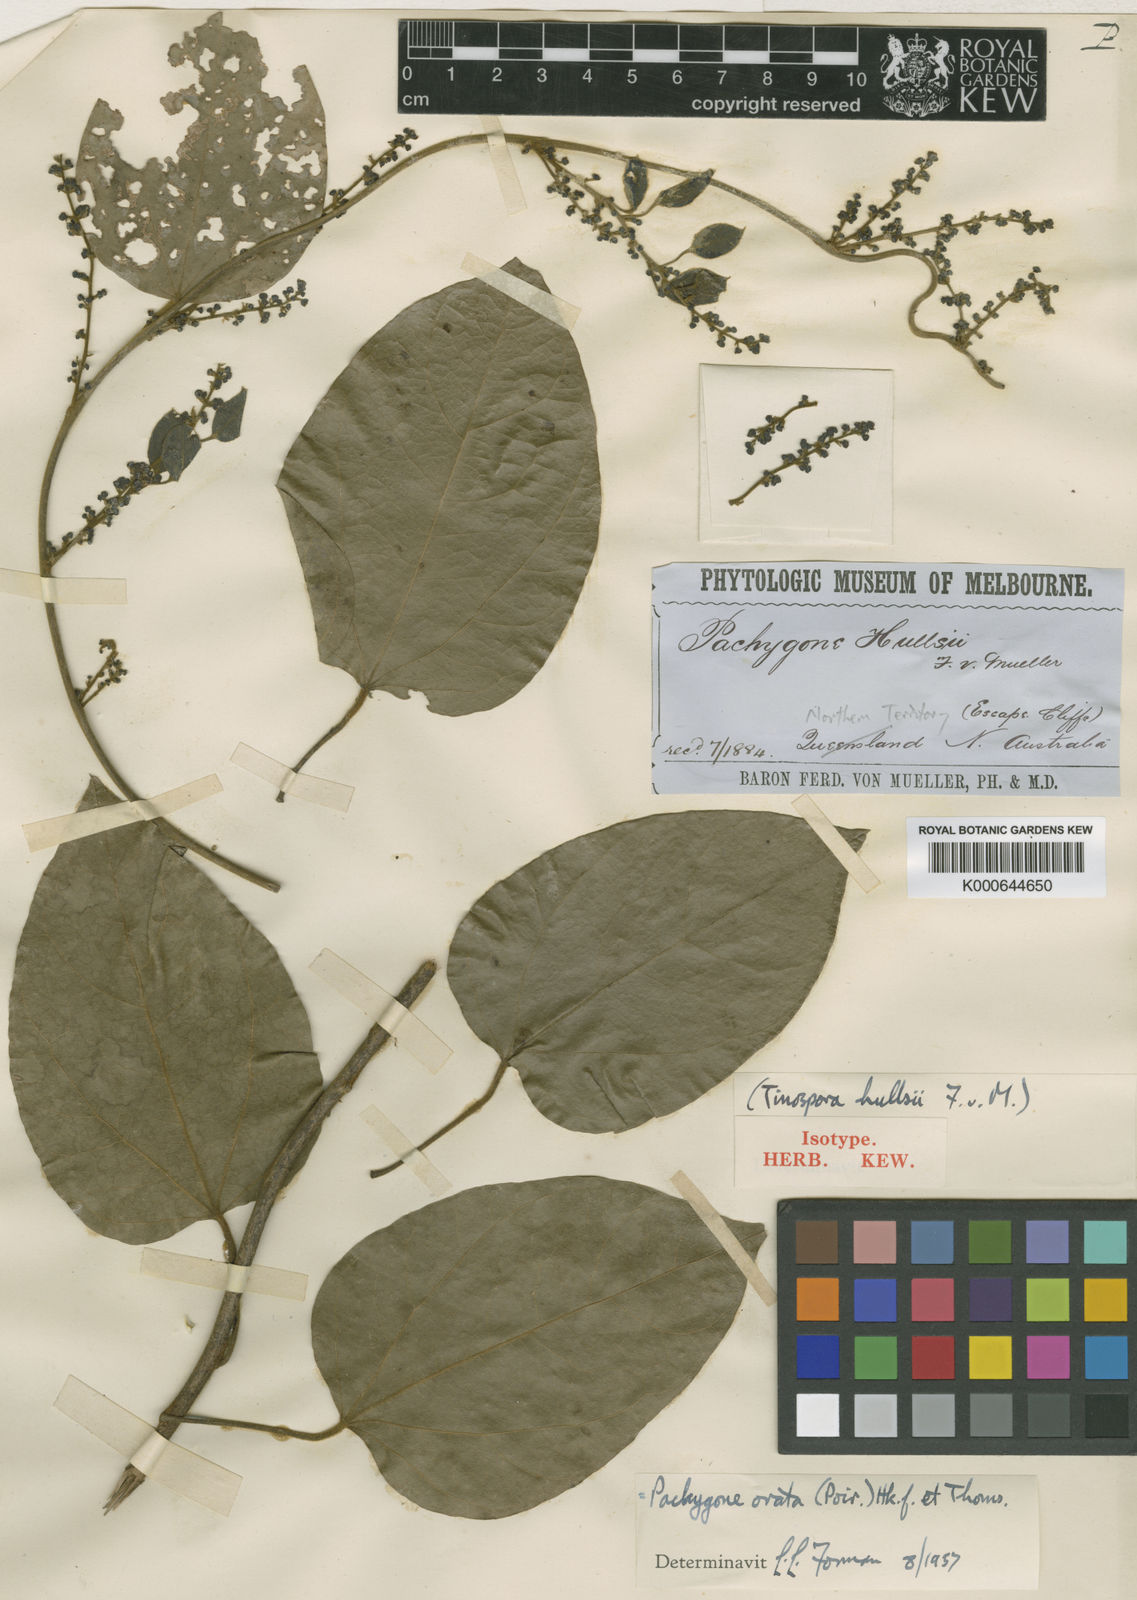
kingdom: Plantae
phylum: Tracheophyta
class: Magnoliopsida
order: Ranunculales
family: Menispermaceae
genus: Pachygone
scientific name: Pachygone ovata
